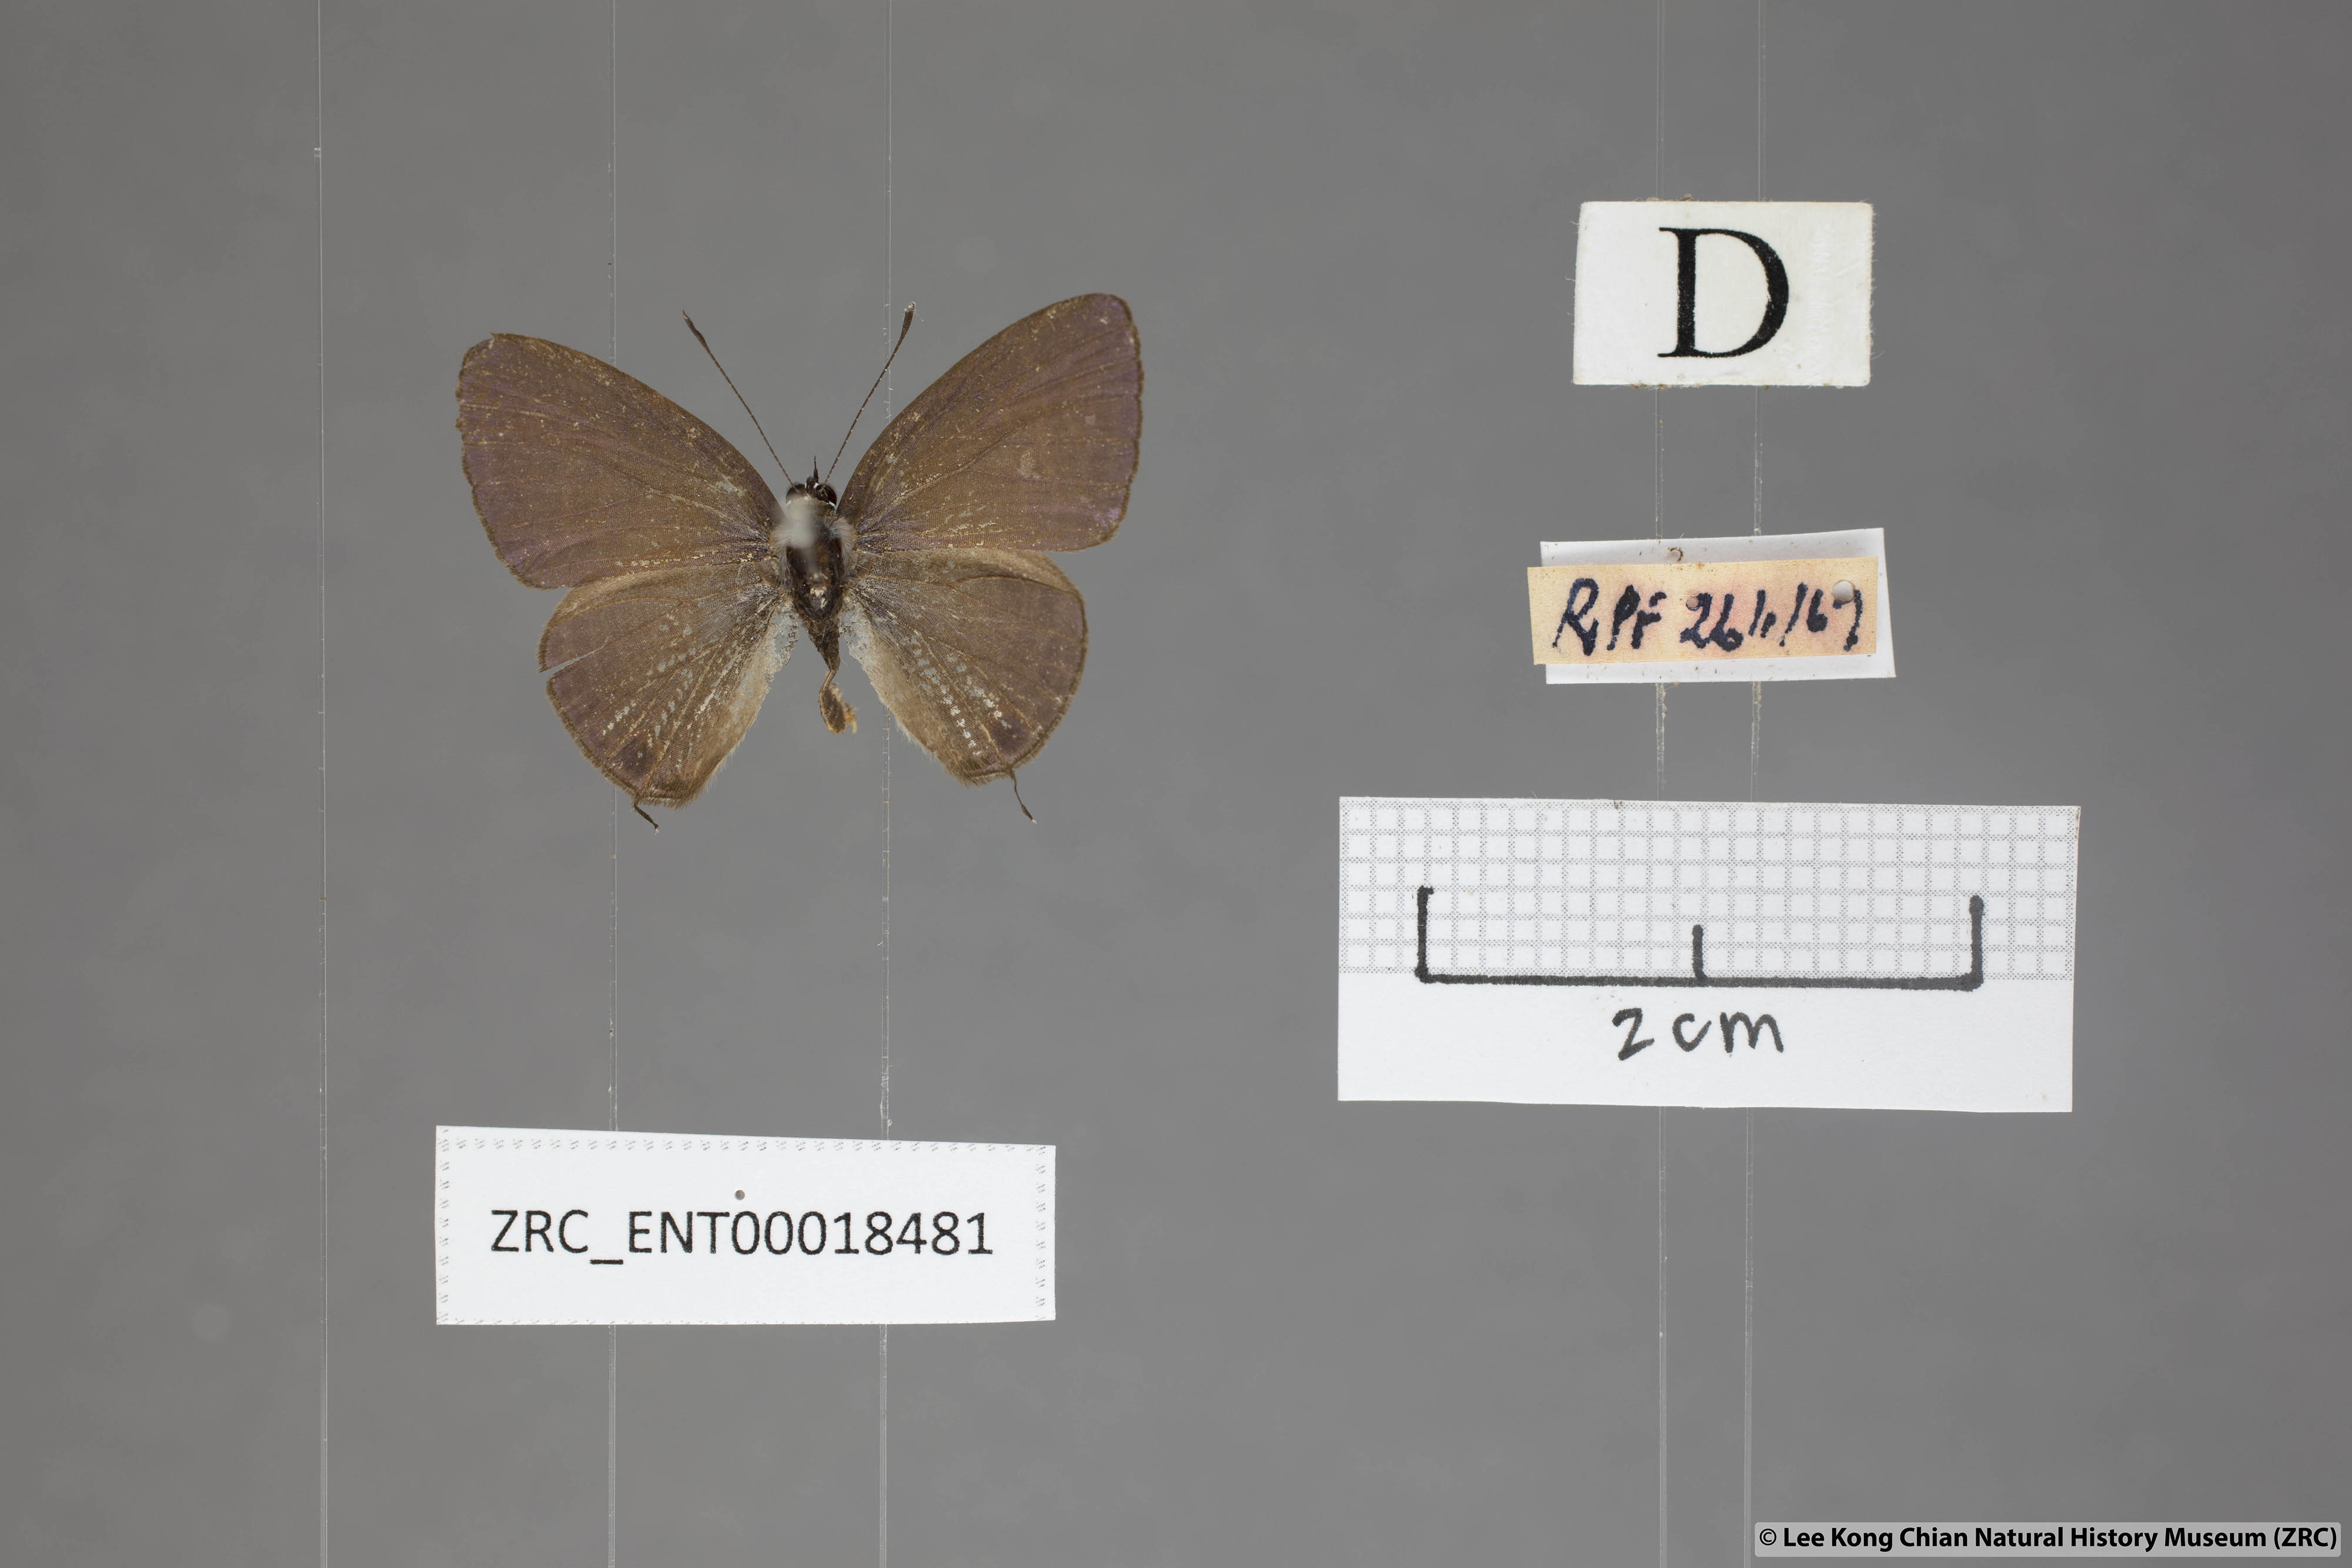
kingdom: Animalia
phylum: Arthropoda
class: Insecta
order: Lepidoptera
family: Lycaenidae
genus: Nacaduba
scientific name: Nacaduba subperusia
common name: Violet fourline blue
